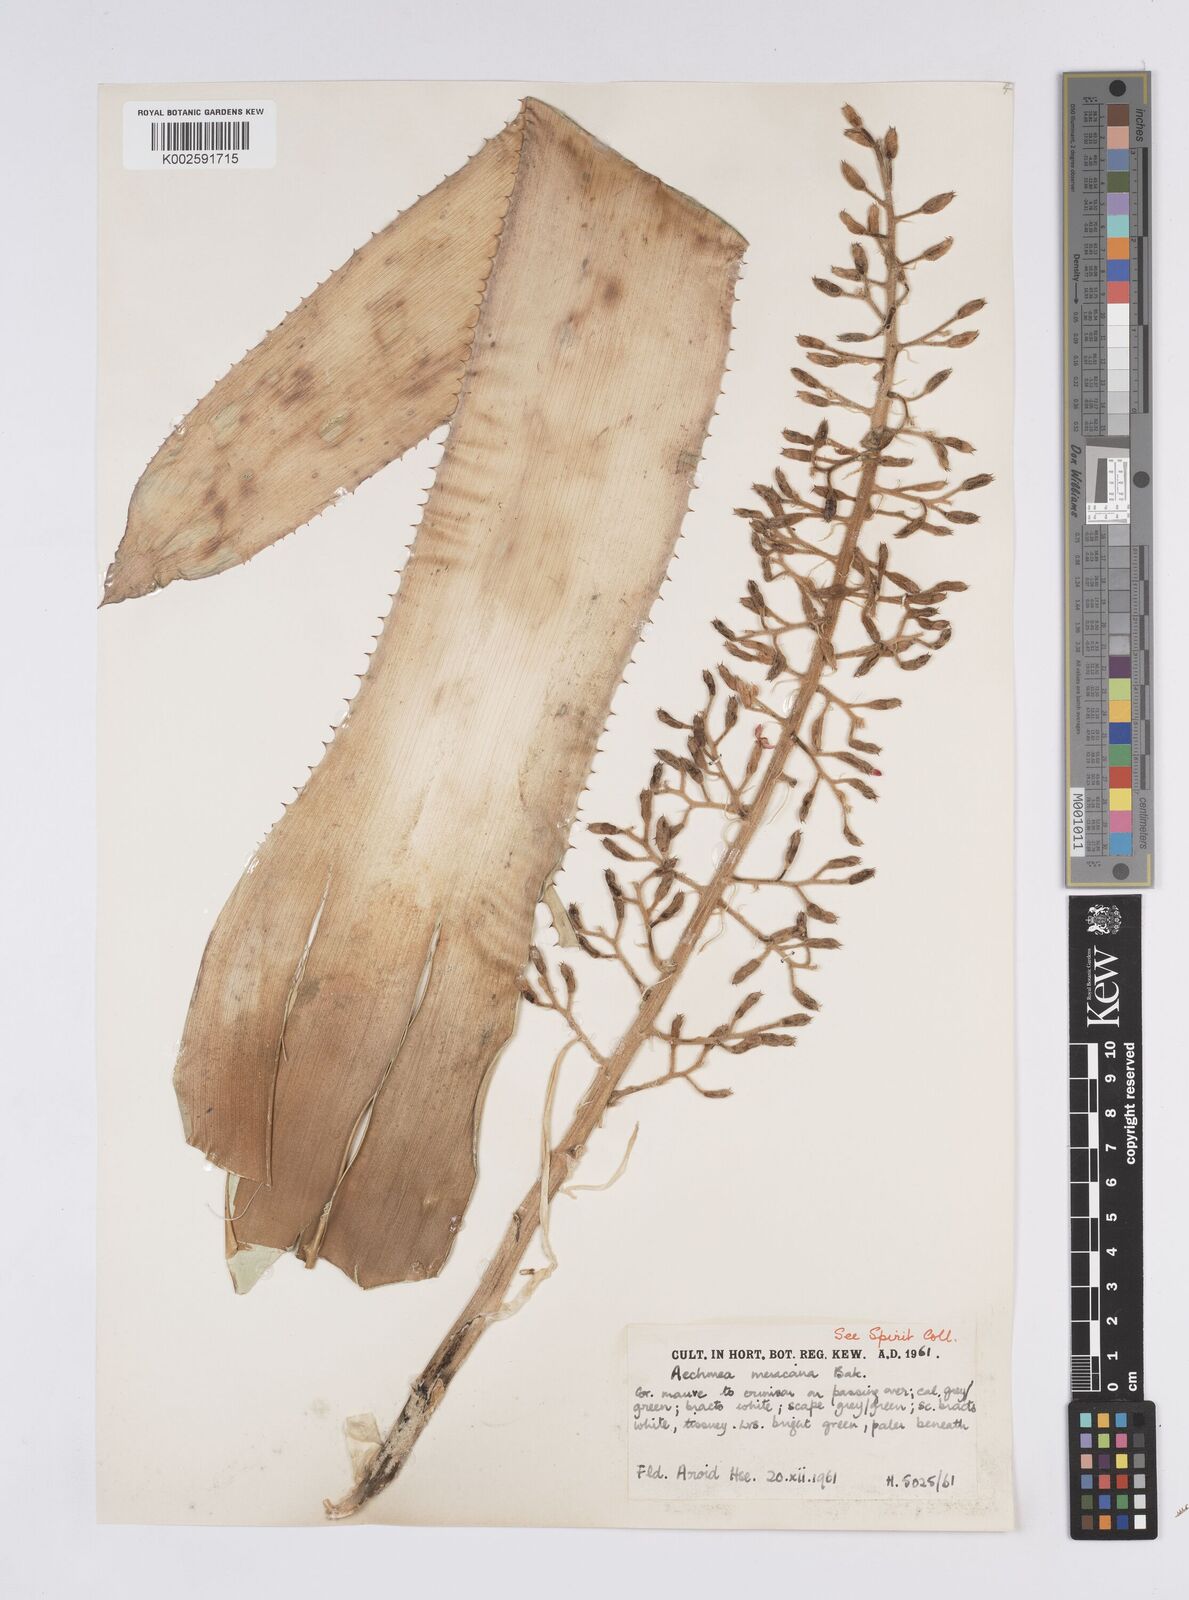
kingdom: Plantae
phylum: Tracheophyta
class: Liliopsida
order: Poales
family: Bromeliaceae
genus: Aechmea
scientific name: Aechmea mexicana
